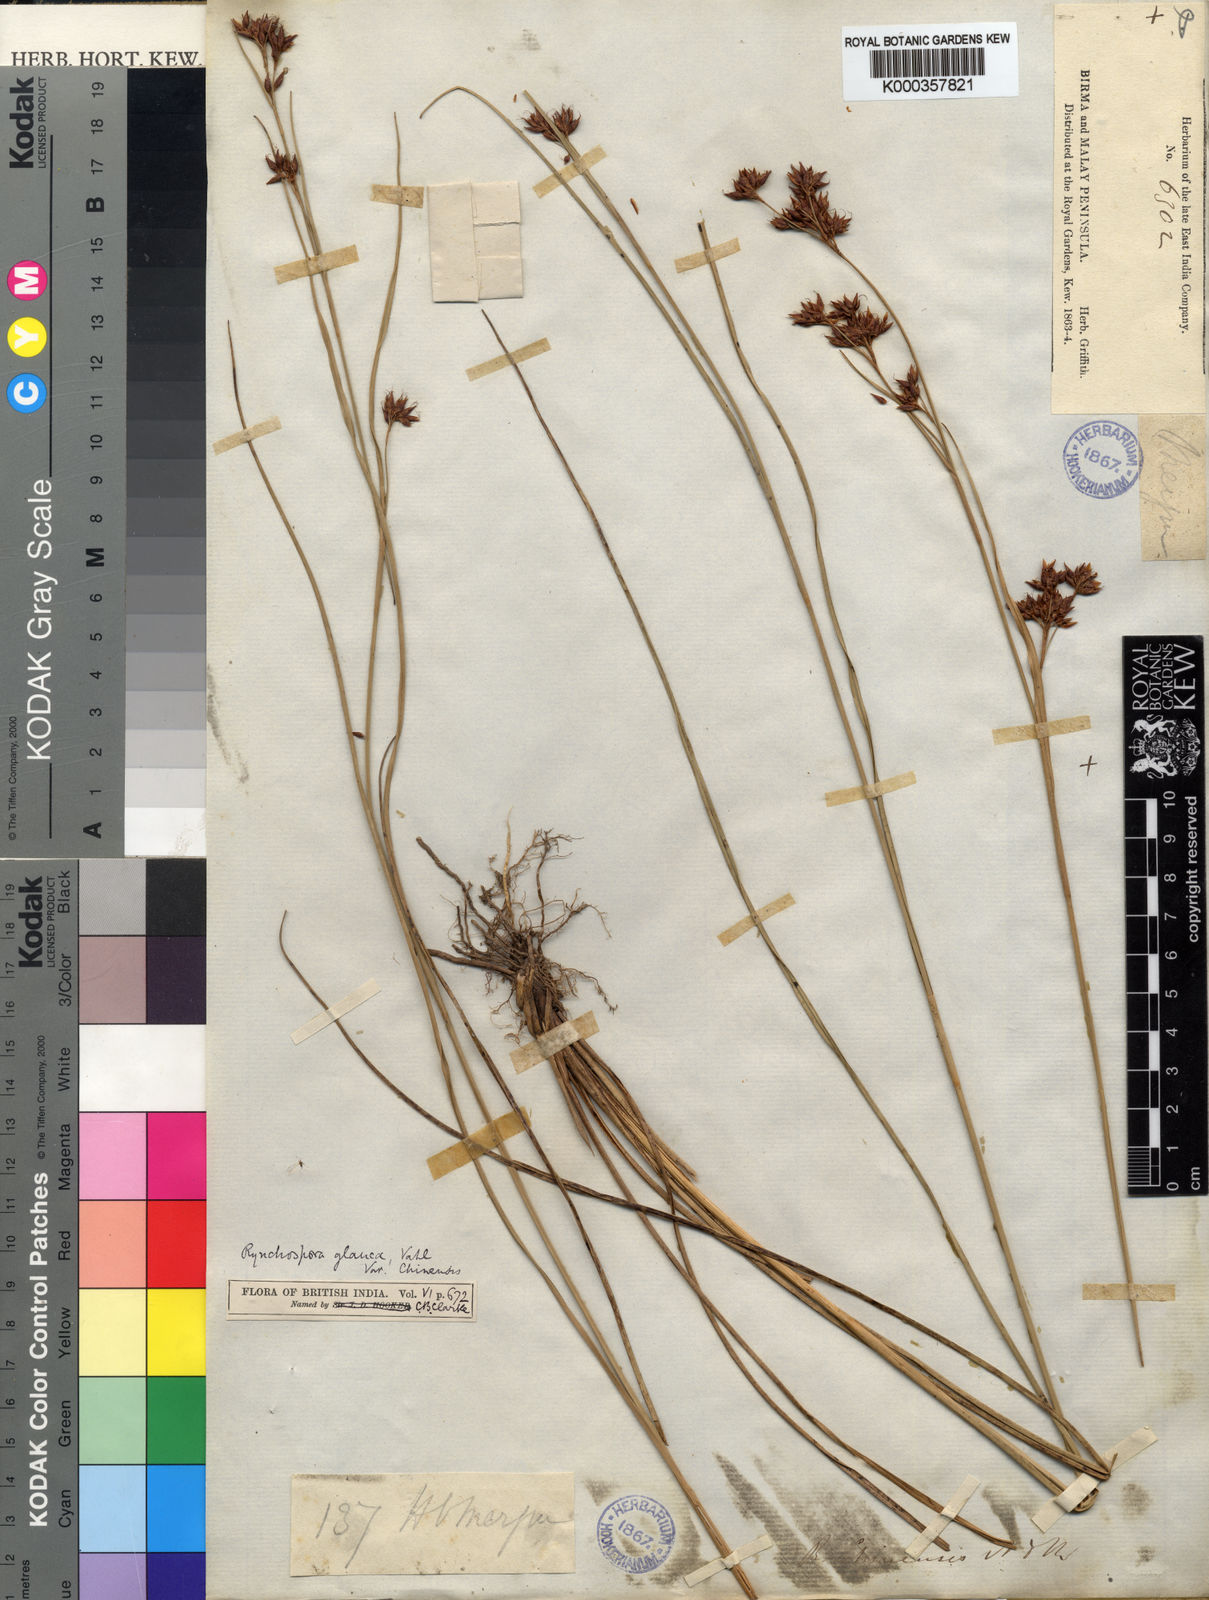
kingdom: Plantae
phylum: Tracheophyta
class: Liliopsida
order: Poales
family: Cyperaceae
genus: Rhynchospora
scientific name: Rhynchospora rugosa
